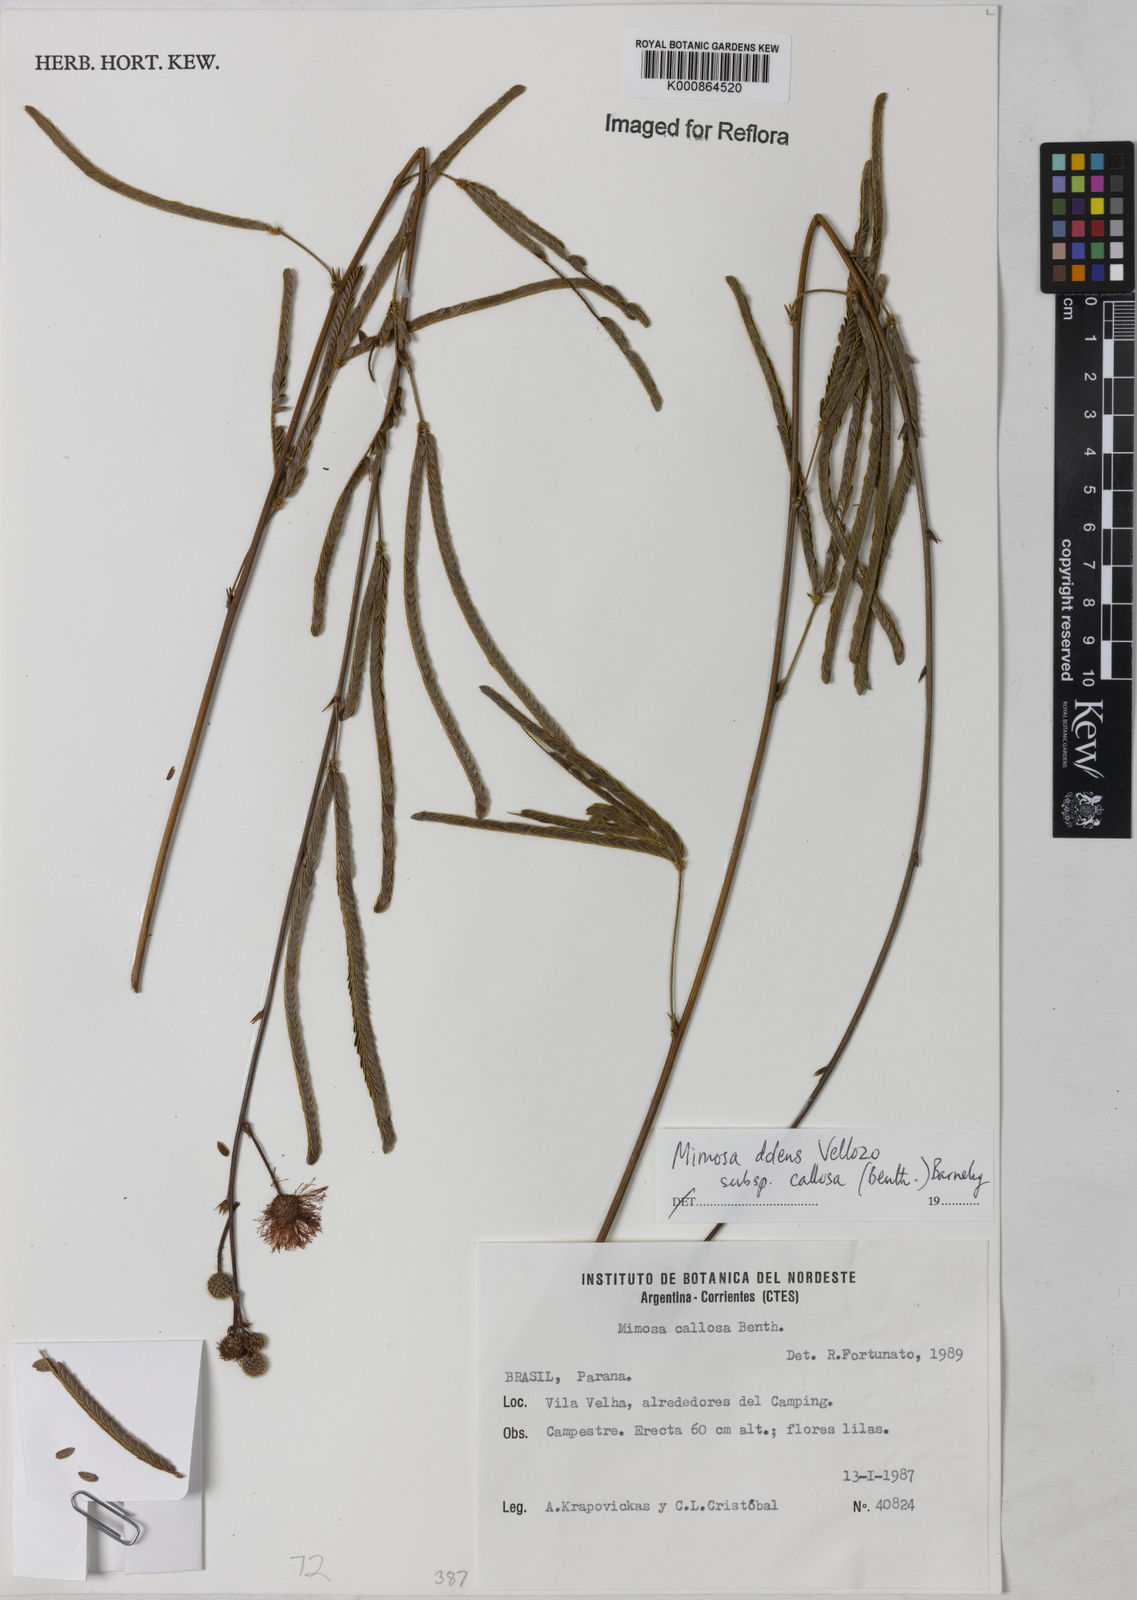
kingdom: Plantae
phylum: Tracheophyta
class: Magnoliopsida
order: Fabales
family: Fabaceae
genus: Mimosa
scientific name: Mimosa dolens
